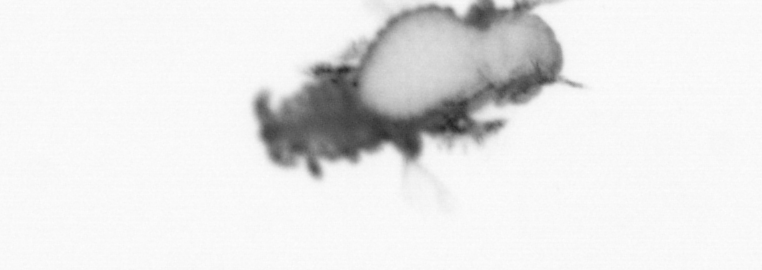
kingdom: Animalia
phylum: Annelida
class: Polychaeta
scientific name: Polychaeta
